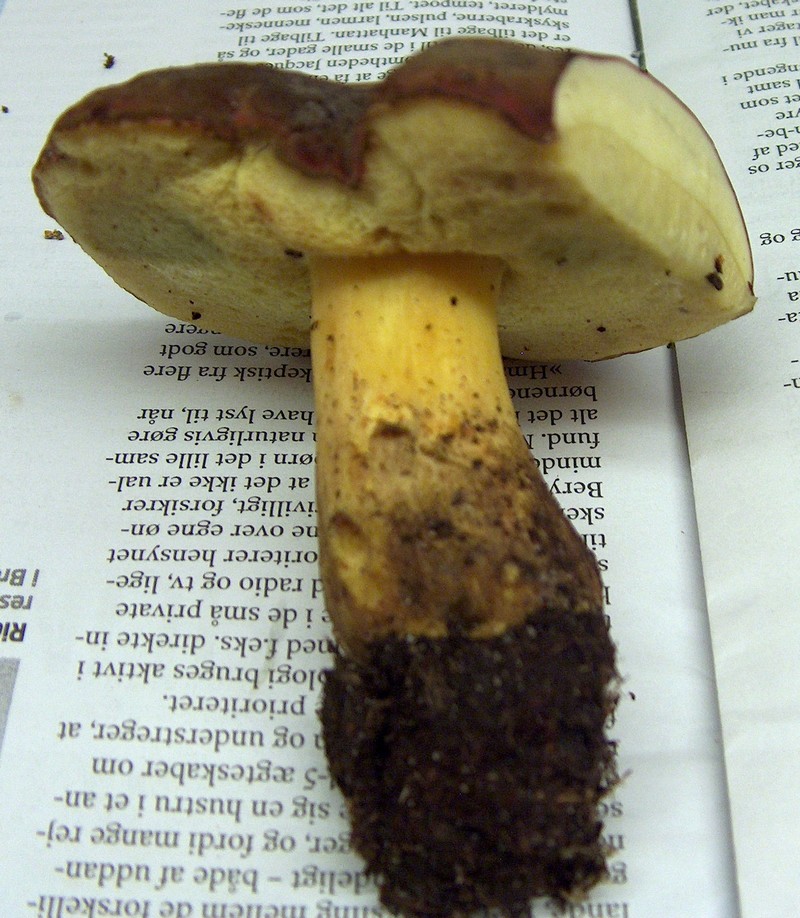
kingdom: Fungi
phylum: Basidiomycota
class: Agaricomycetes
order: Boletales
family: Boletaceae
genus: Xerocomellus
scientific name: Xerocomellus pruinatus
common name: dugget rørhat
